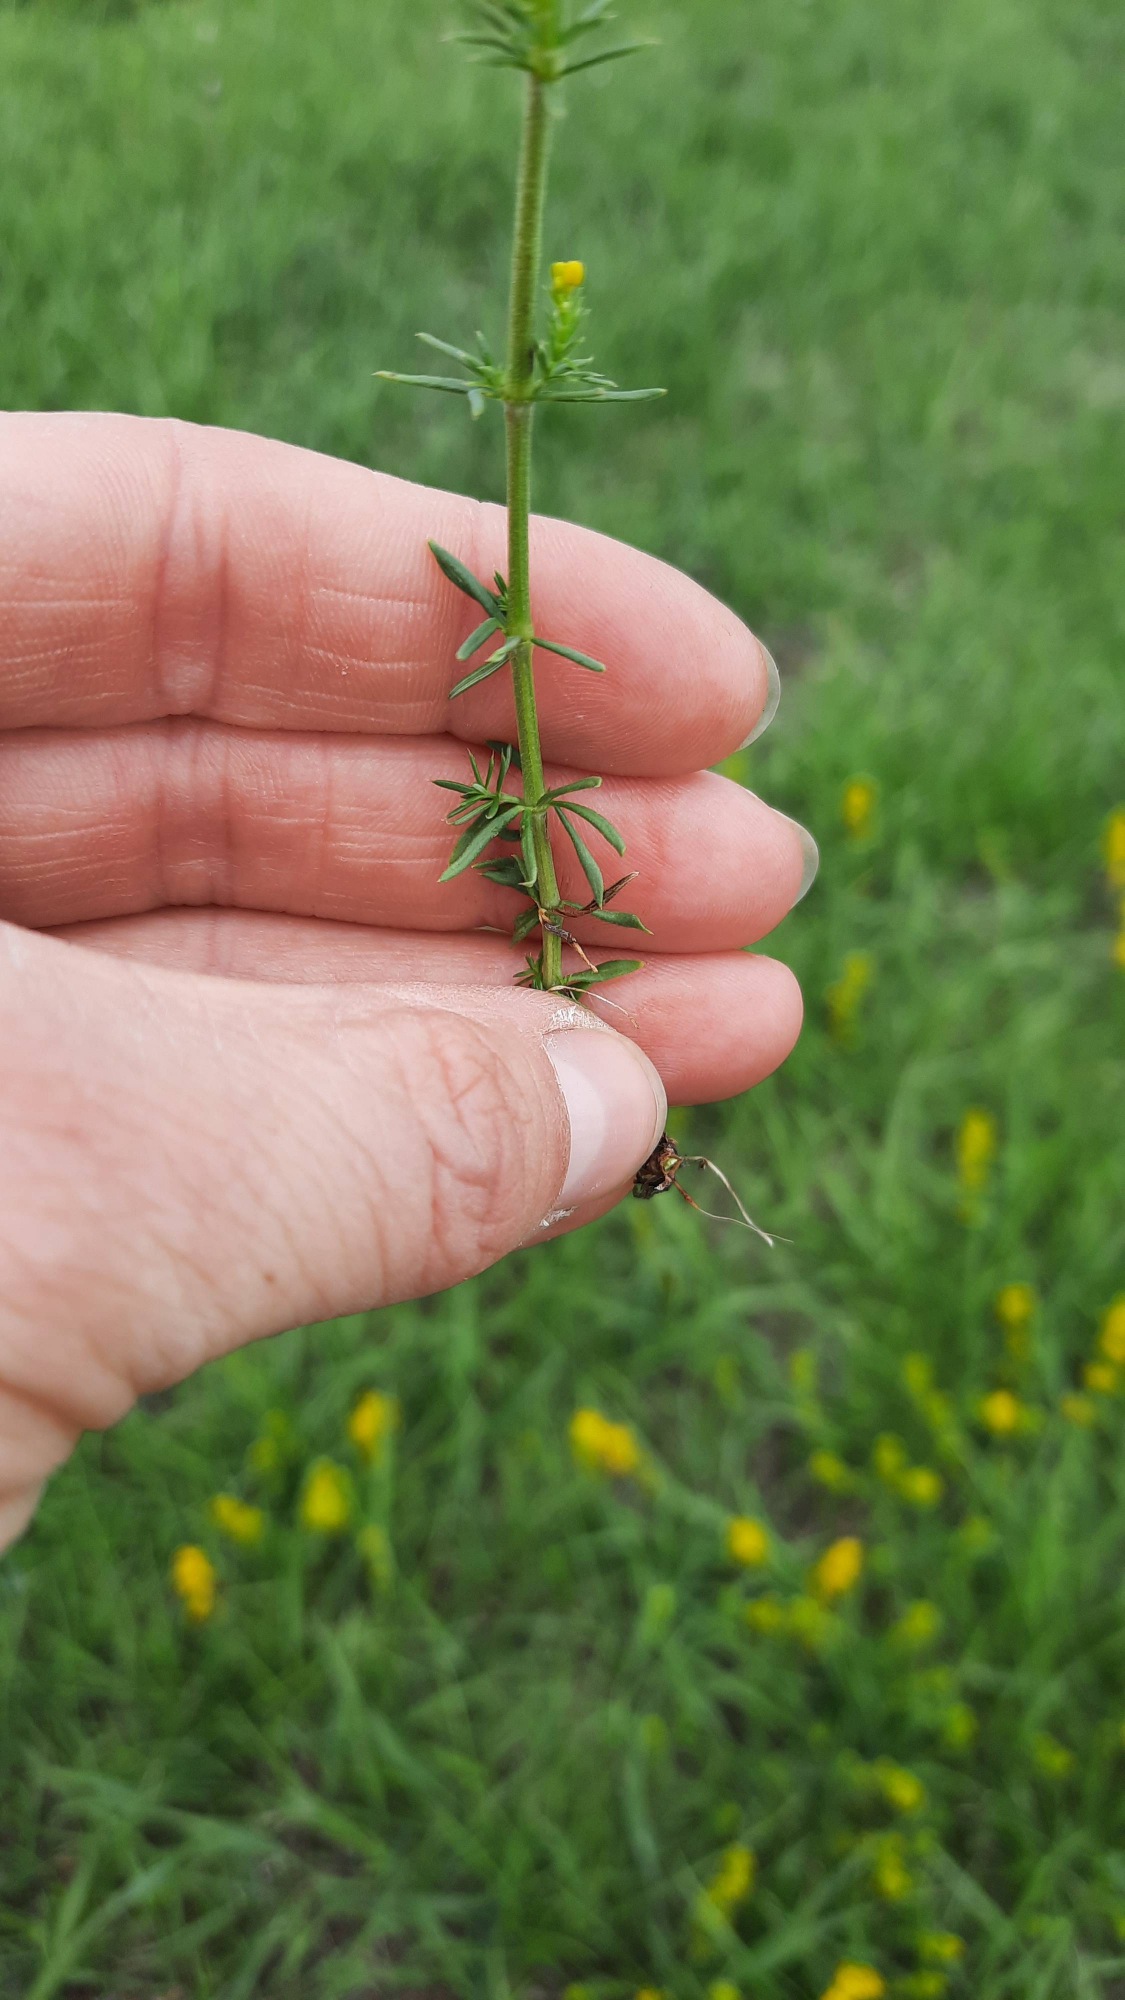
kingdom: Plantae
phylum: Tracheophyta
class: Magnoliopsida
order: Gentianales
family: Rubiaceae
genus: Galium
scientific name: Galium verum
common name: Gul snerre
